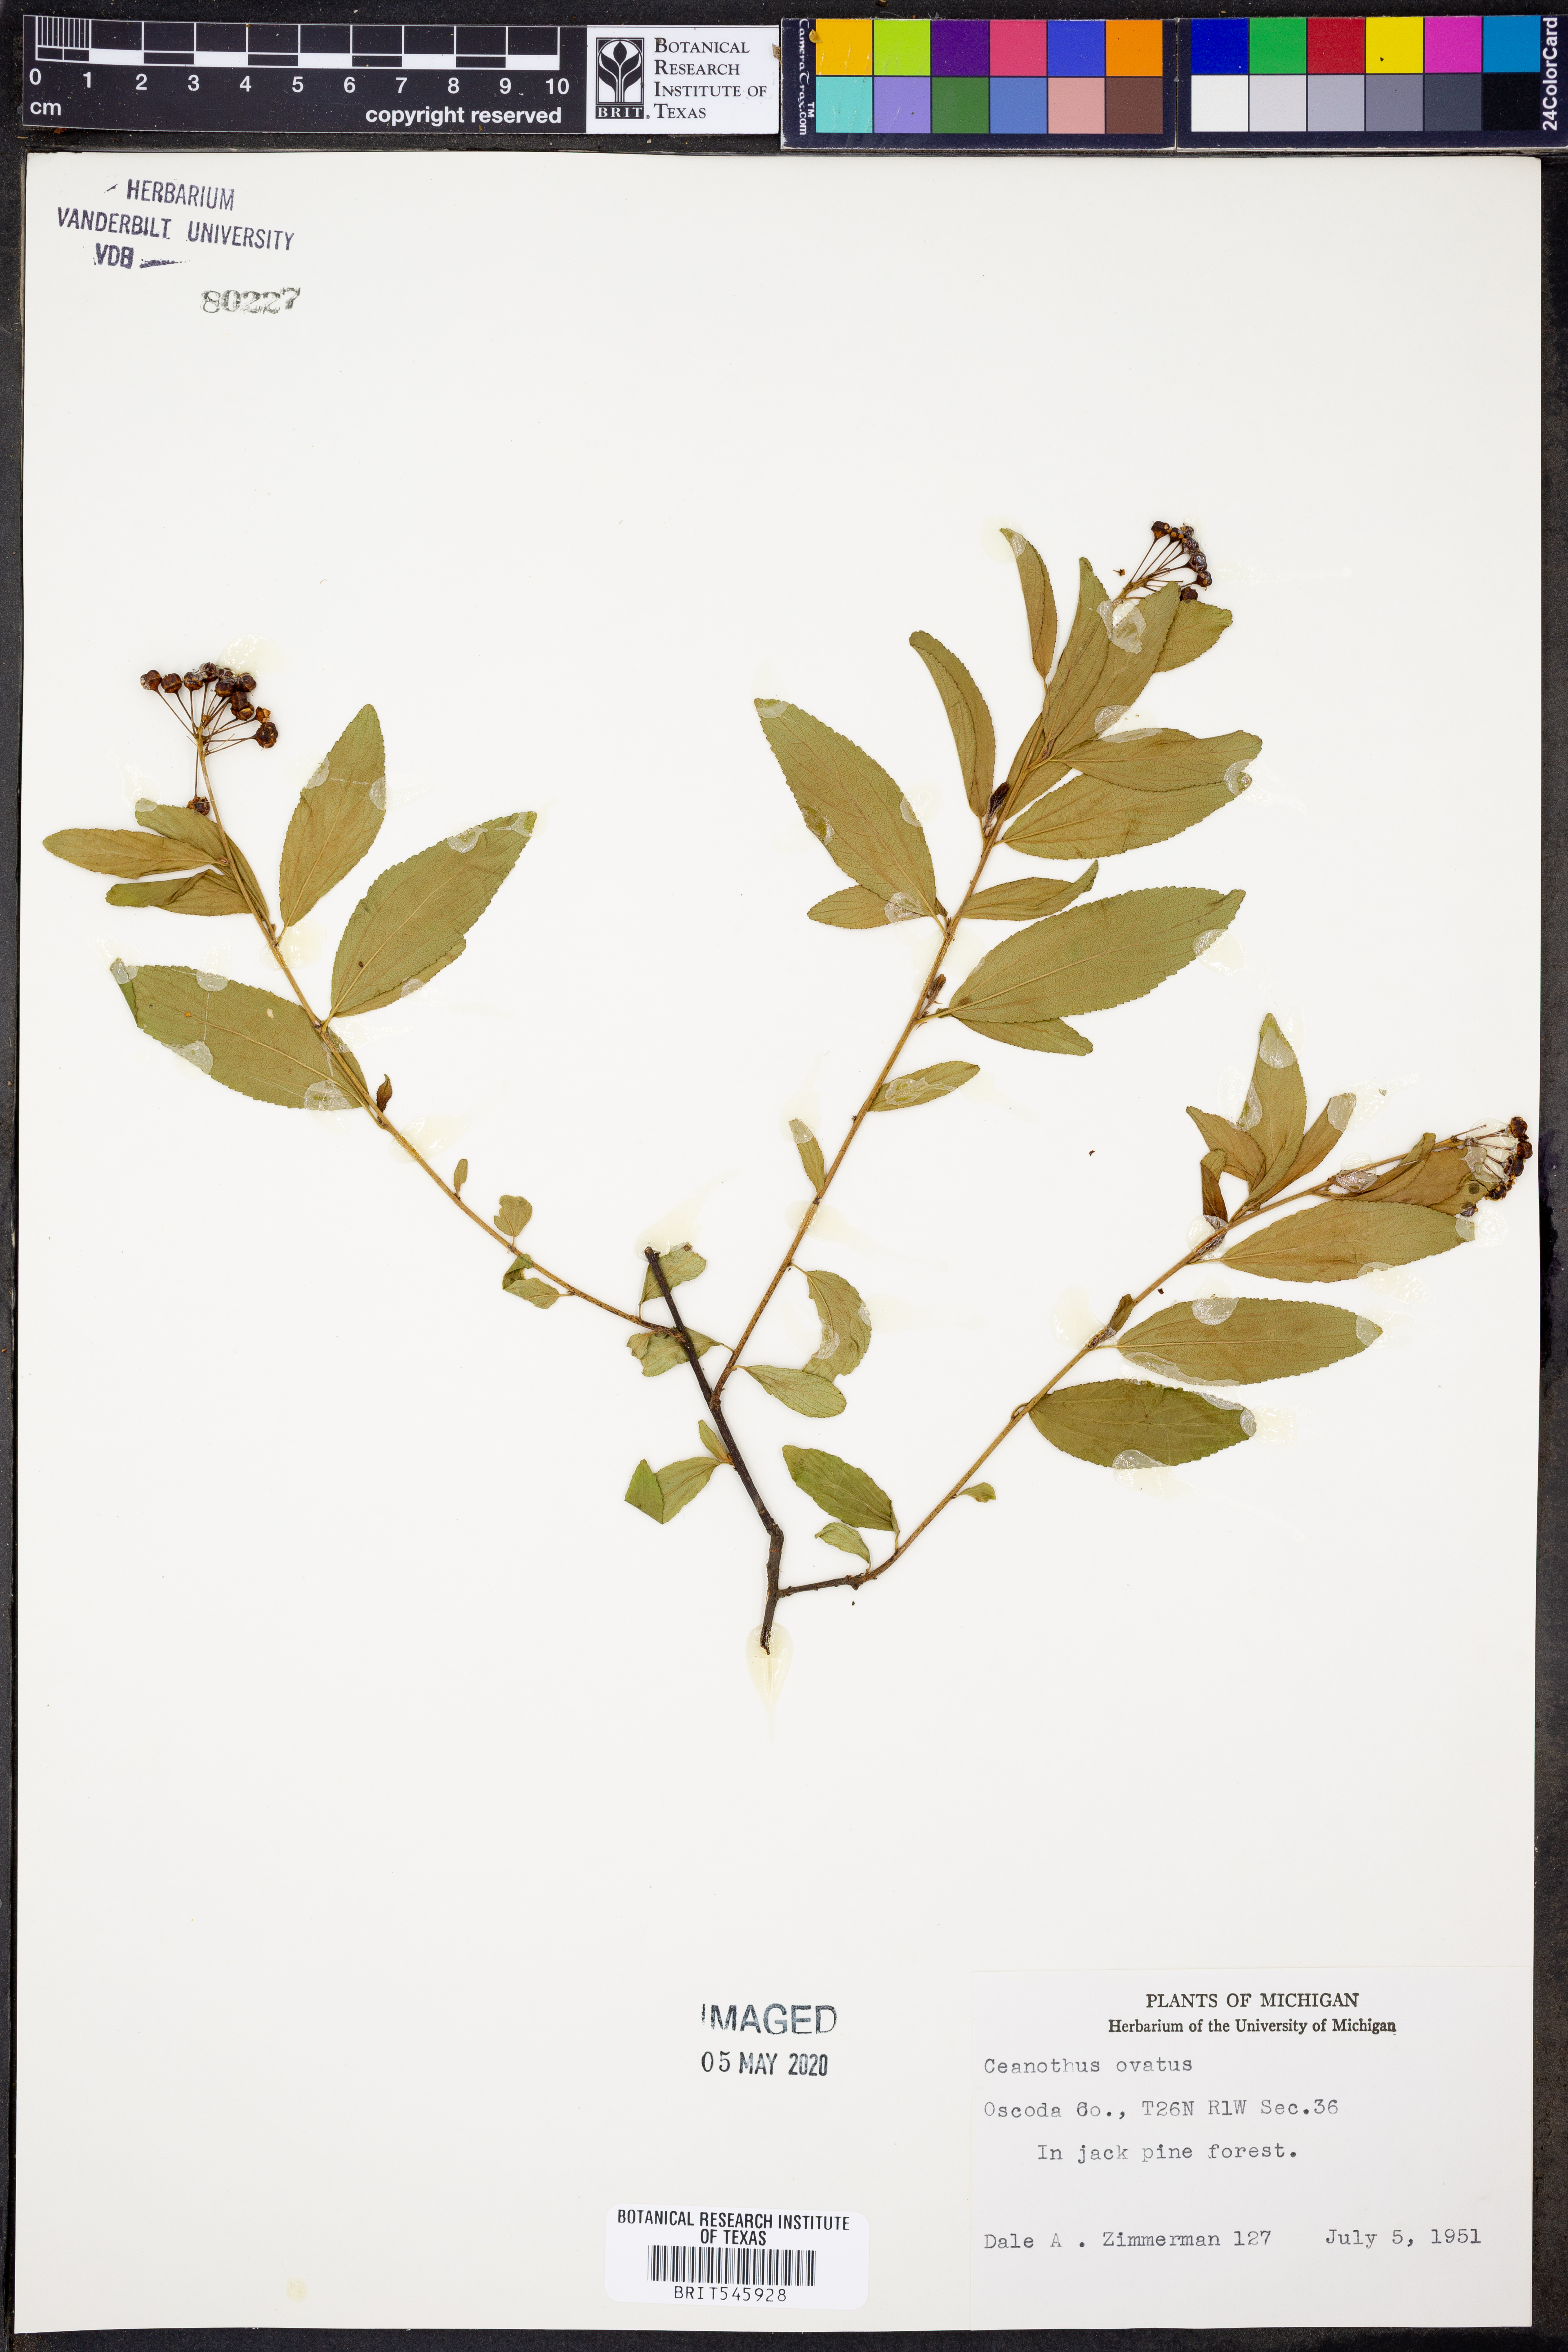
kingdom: Plantae
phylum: Tracheophyta
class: Magnoliopsida
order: Rosales
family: Rhamnaceae
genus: Ceanothus
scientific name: Ceanothus herbaceus
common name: Inland ceanothus
